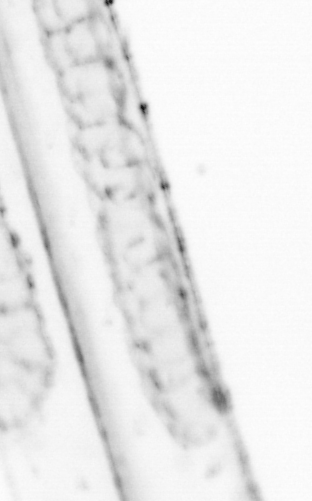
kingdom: Animalia
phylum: Chordata
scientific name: Chordata
